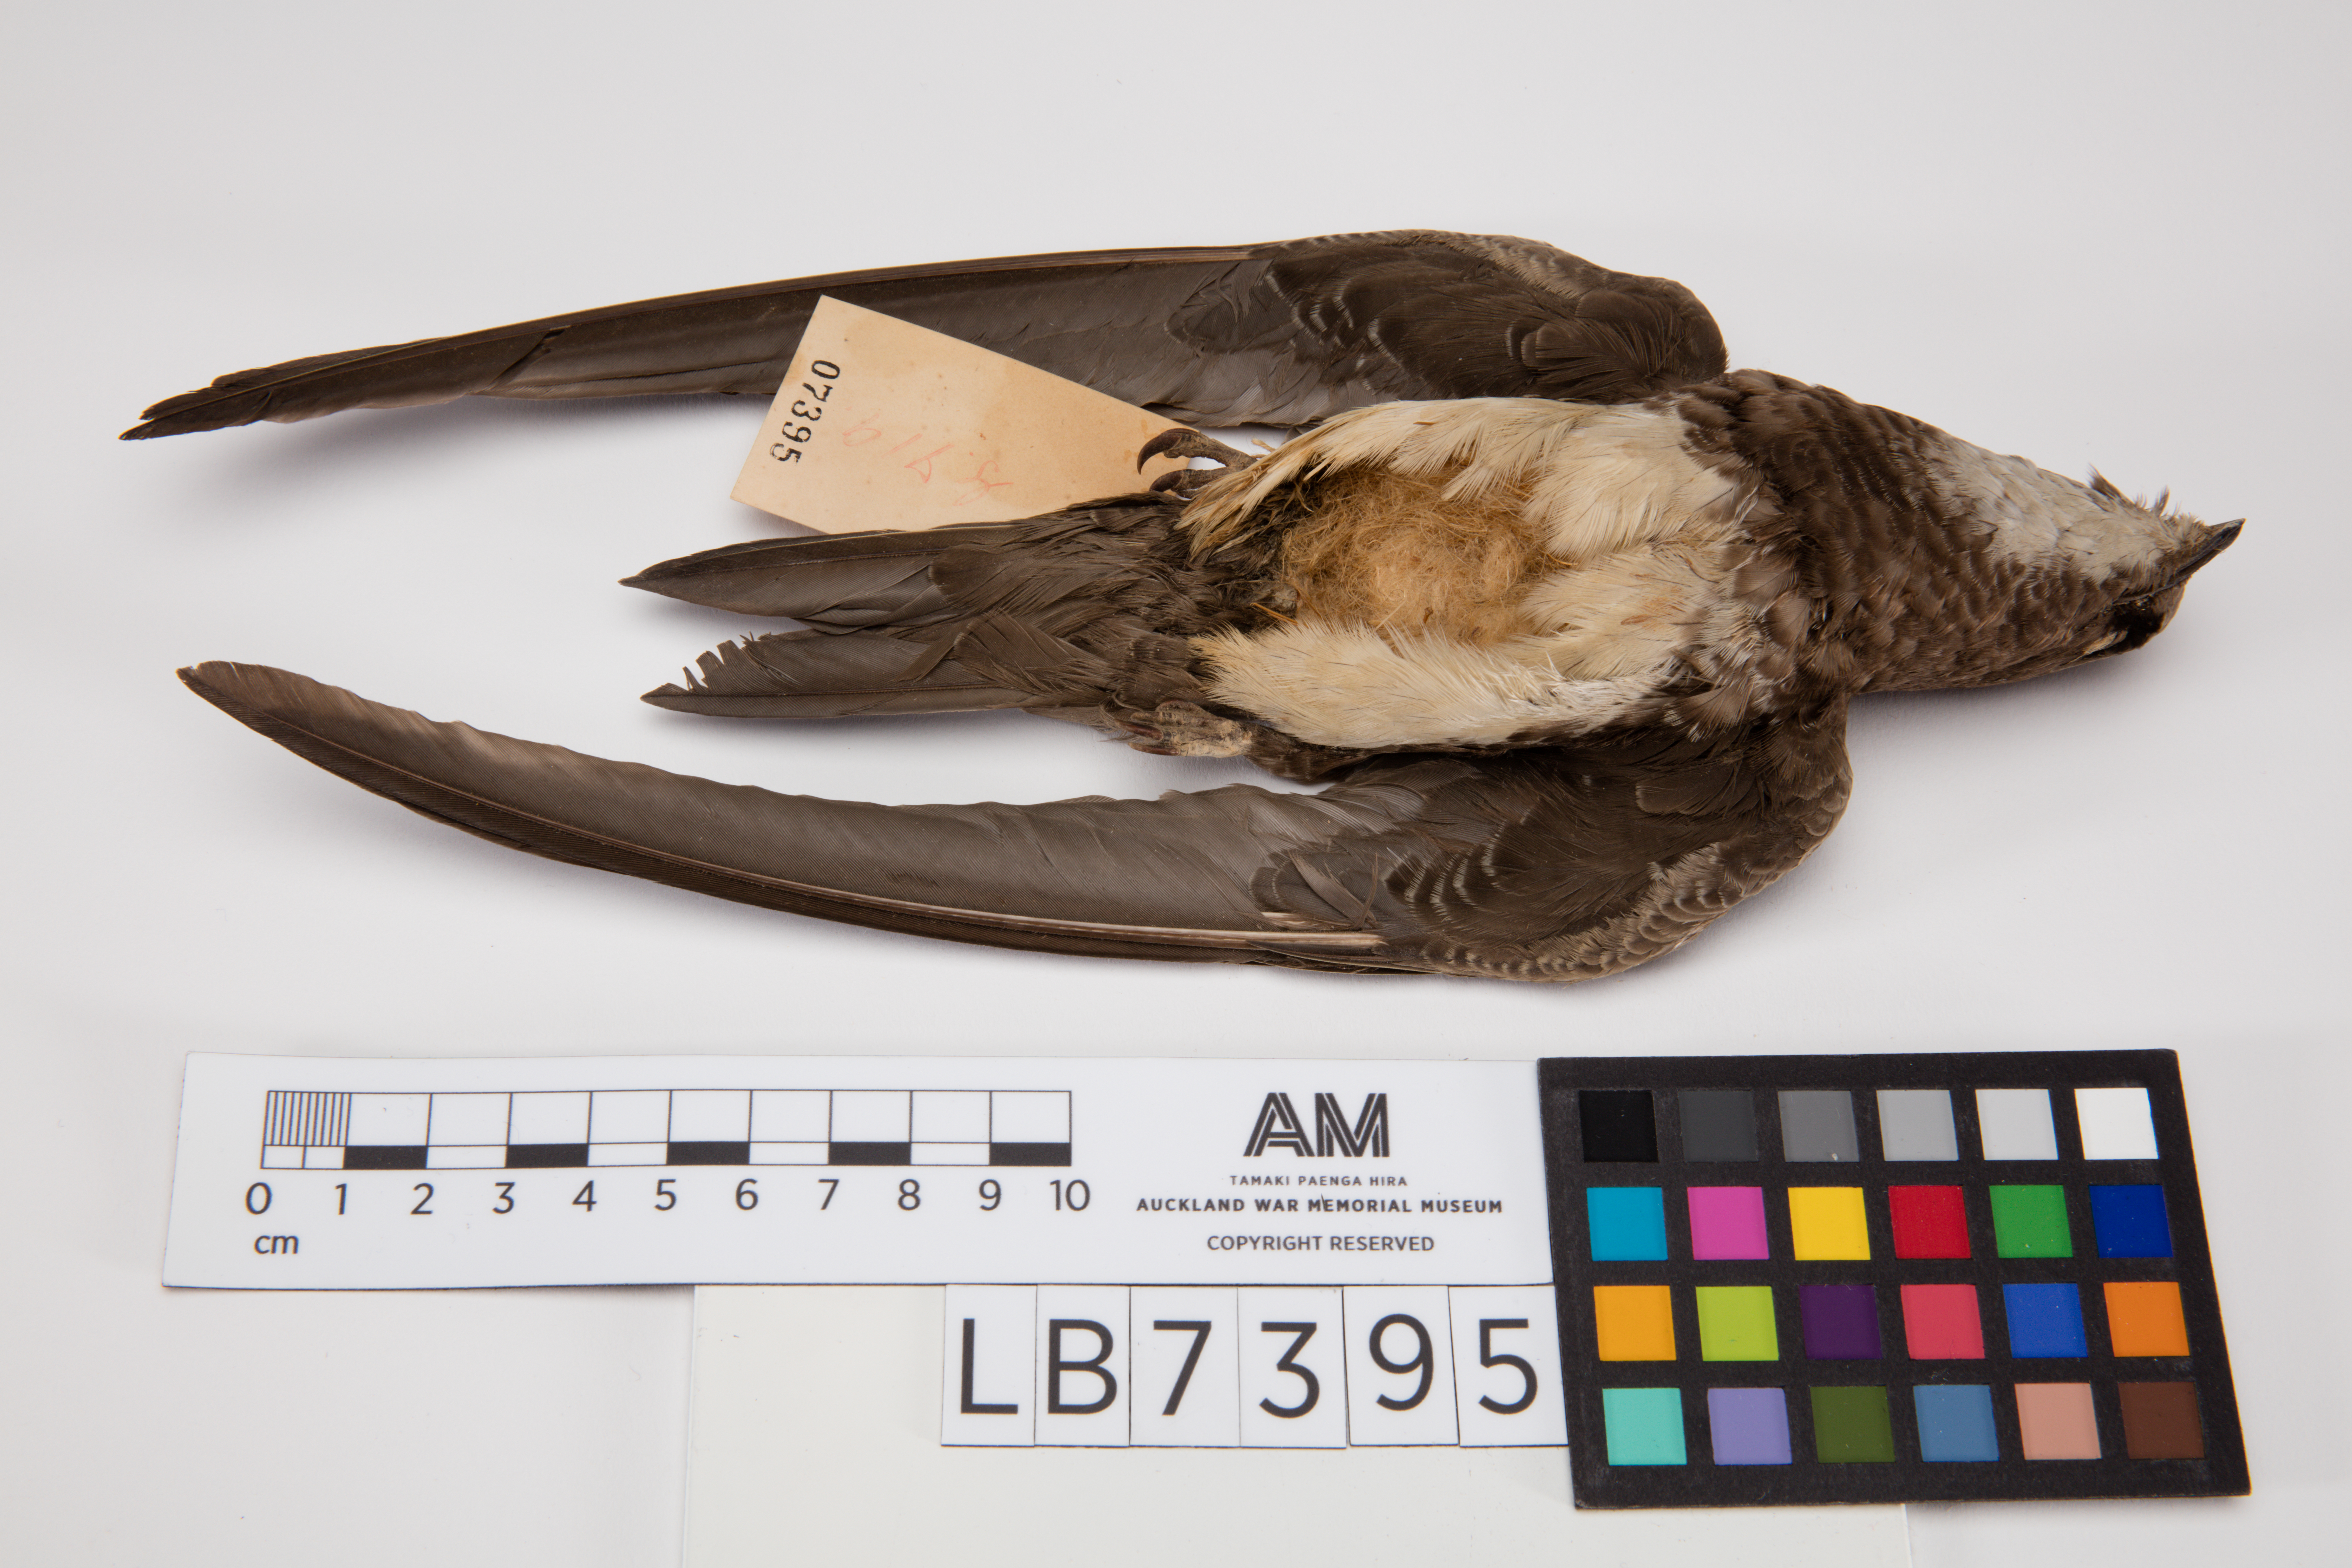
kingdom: Animalia
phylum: Chordata
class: Aves
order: Apodiformes
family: Apodidae
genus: Tachymarptis
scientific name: Tachymarptis melba
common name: Alpine swift
